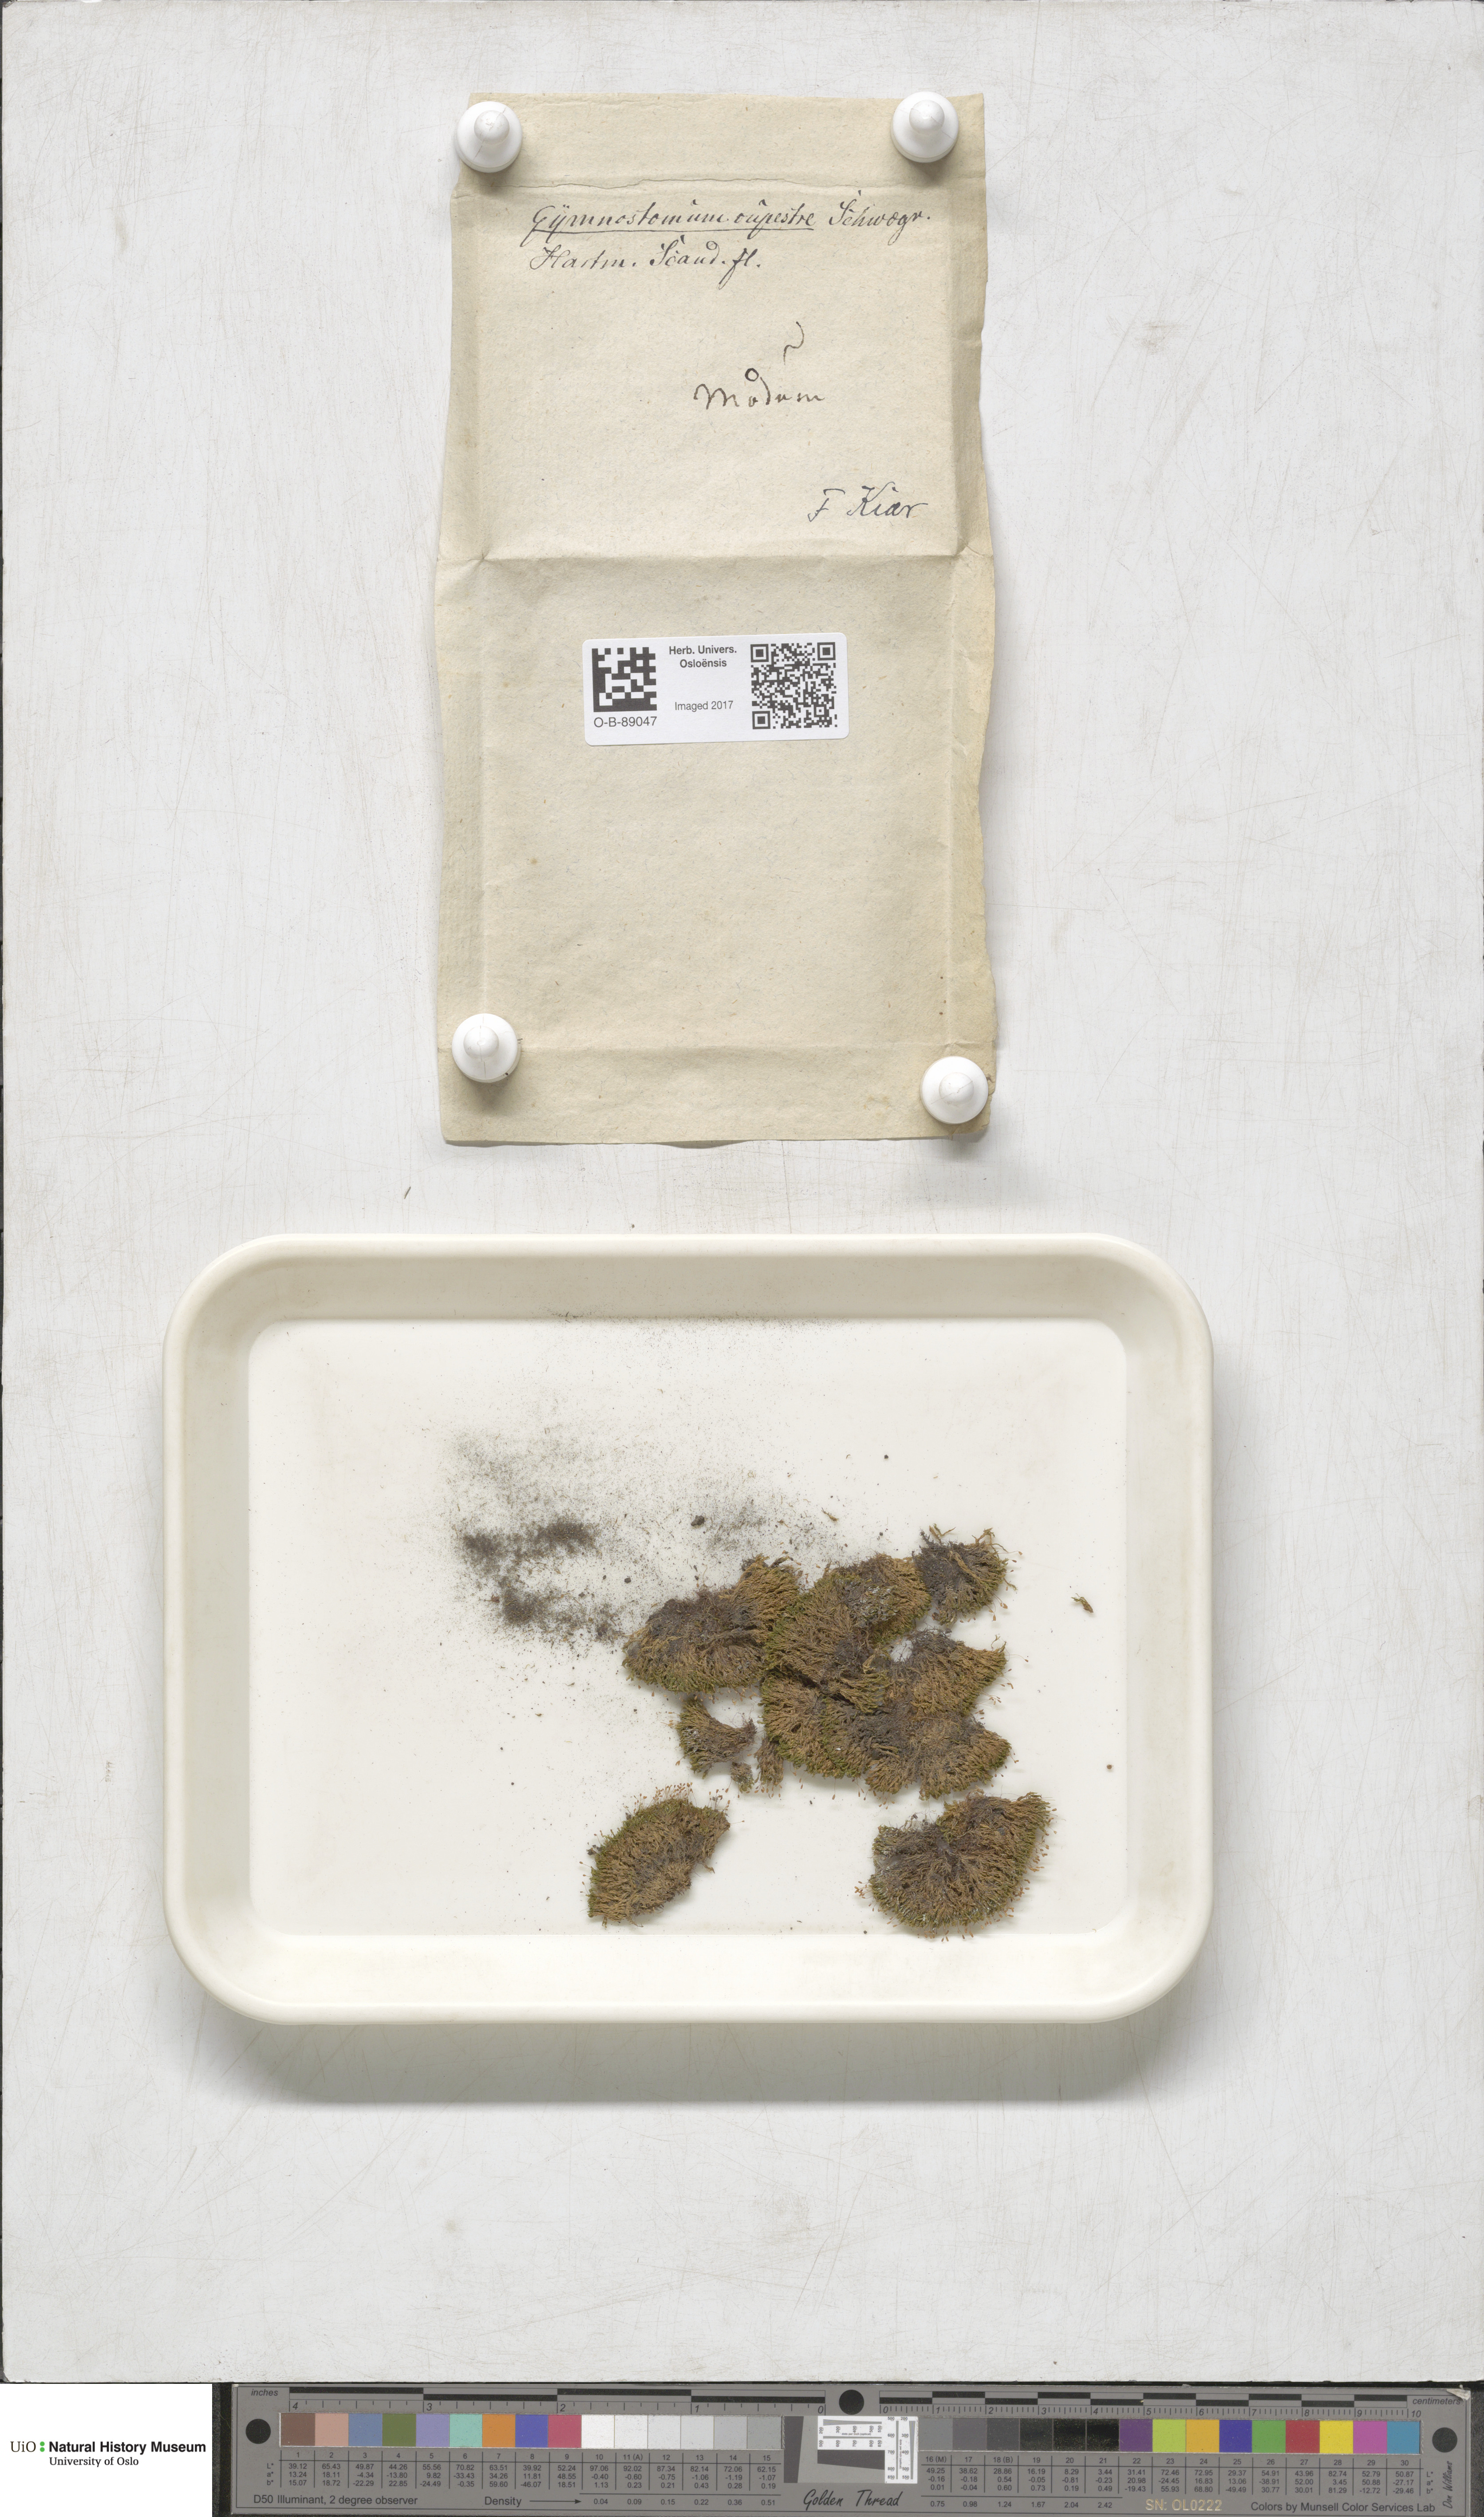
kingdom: Plantae
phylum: Bryophyta
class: Bryopsida
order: Pottiales
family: Pottiaceae
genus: Gymnostomum
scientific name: Gymnostomum aeruginosum
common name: Verdigris tufa-moss
